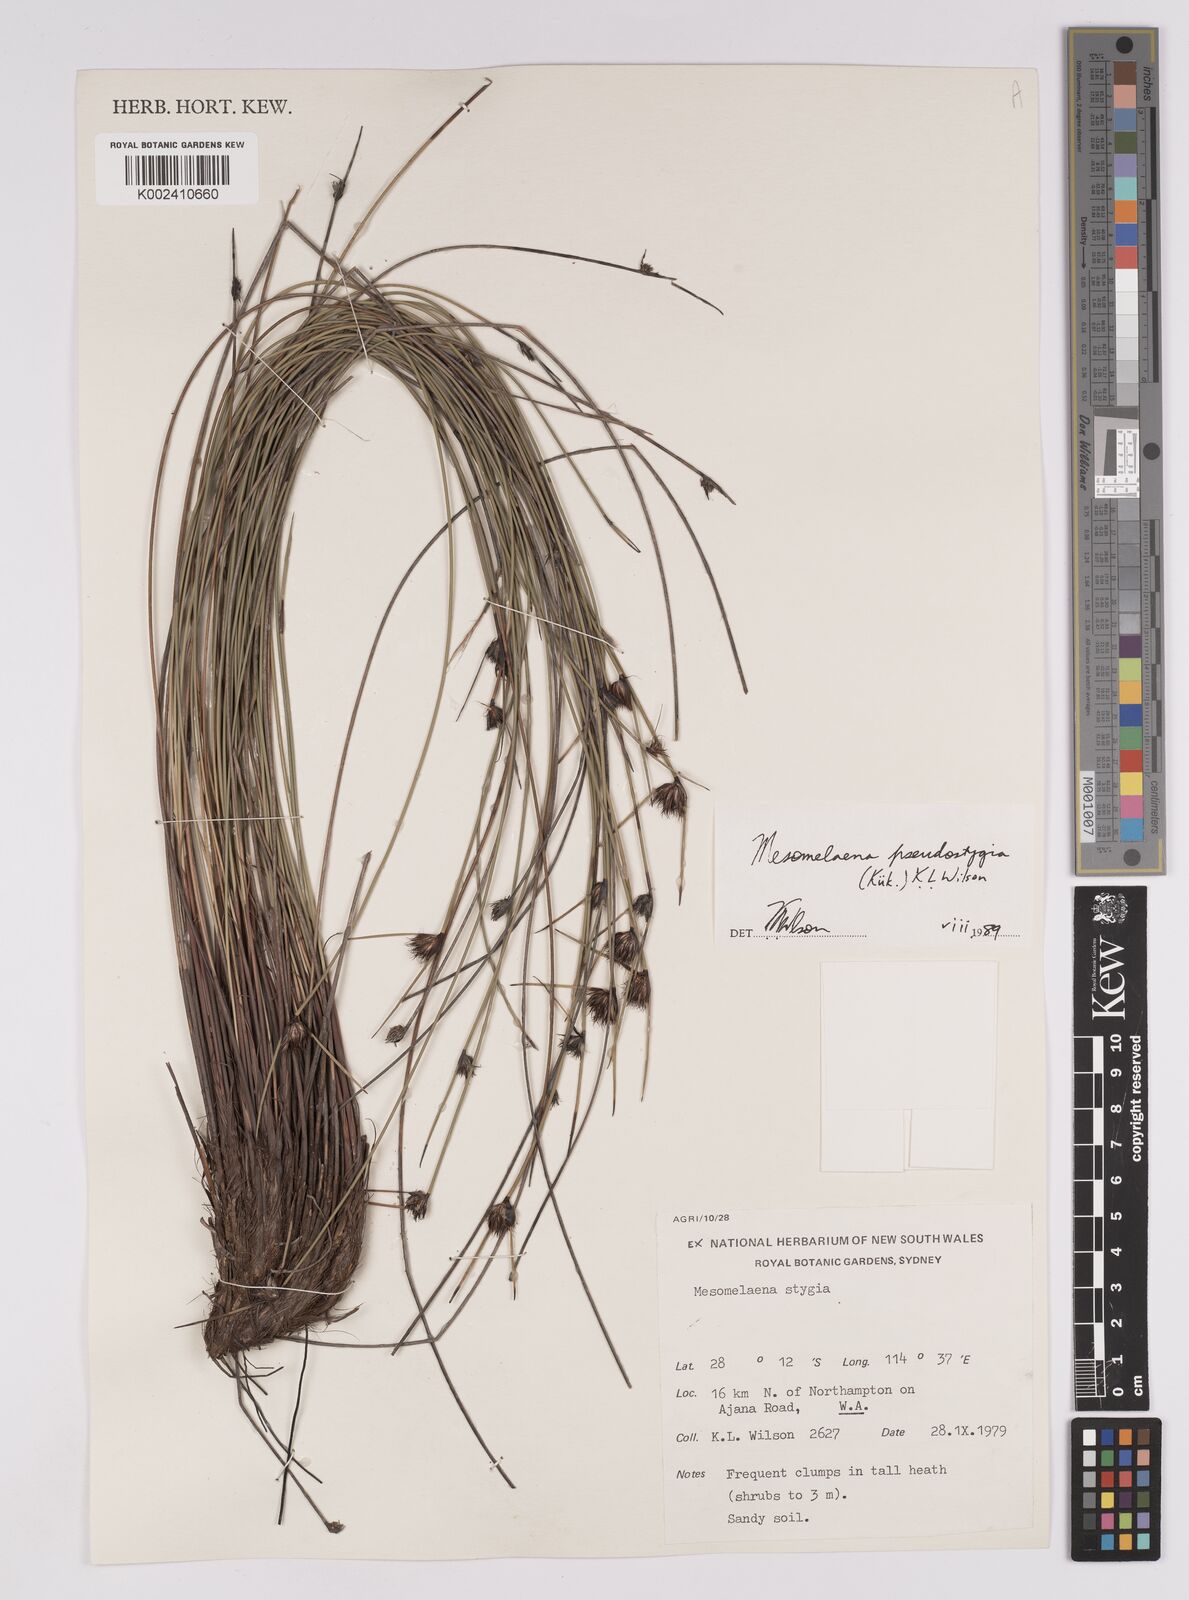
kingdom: Plantae
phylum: Tracheophyta
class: Liliopsida
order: Poales
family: Cyperaceae
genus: Mesomelaena
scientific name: Mesomelaena pseudostygia
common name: Semaphore sedge
